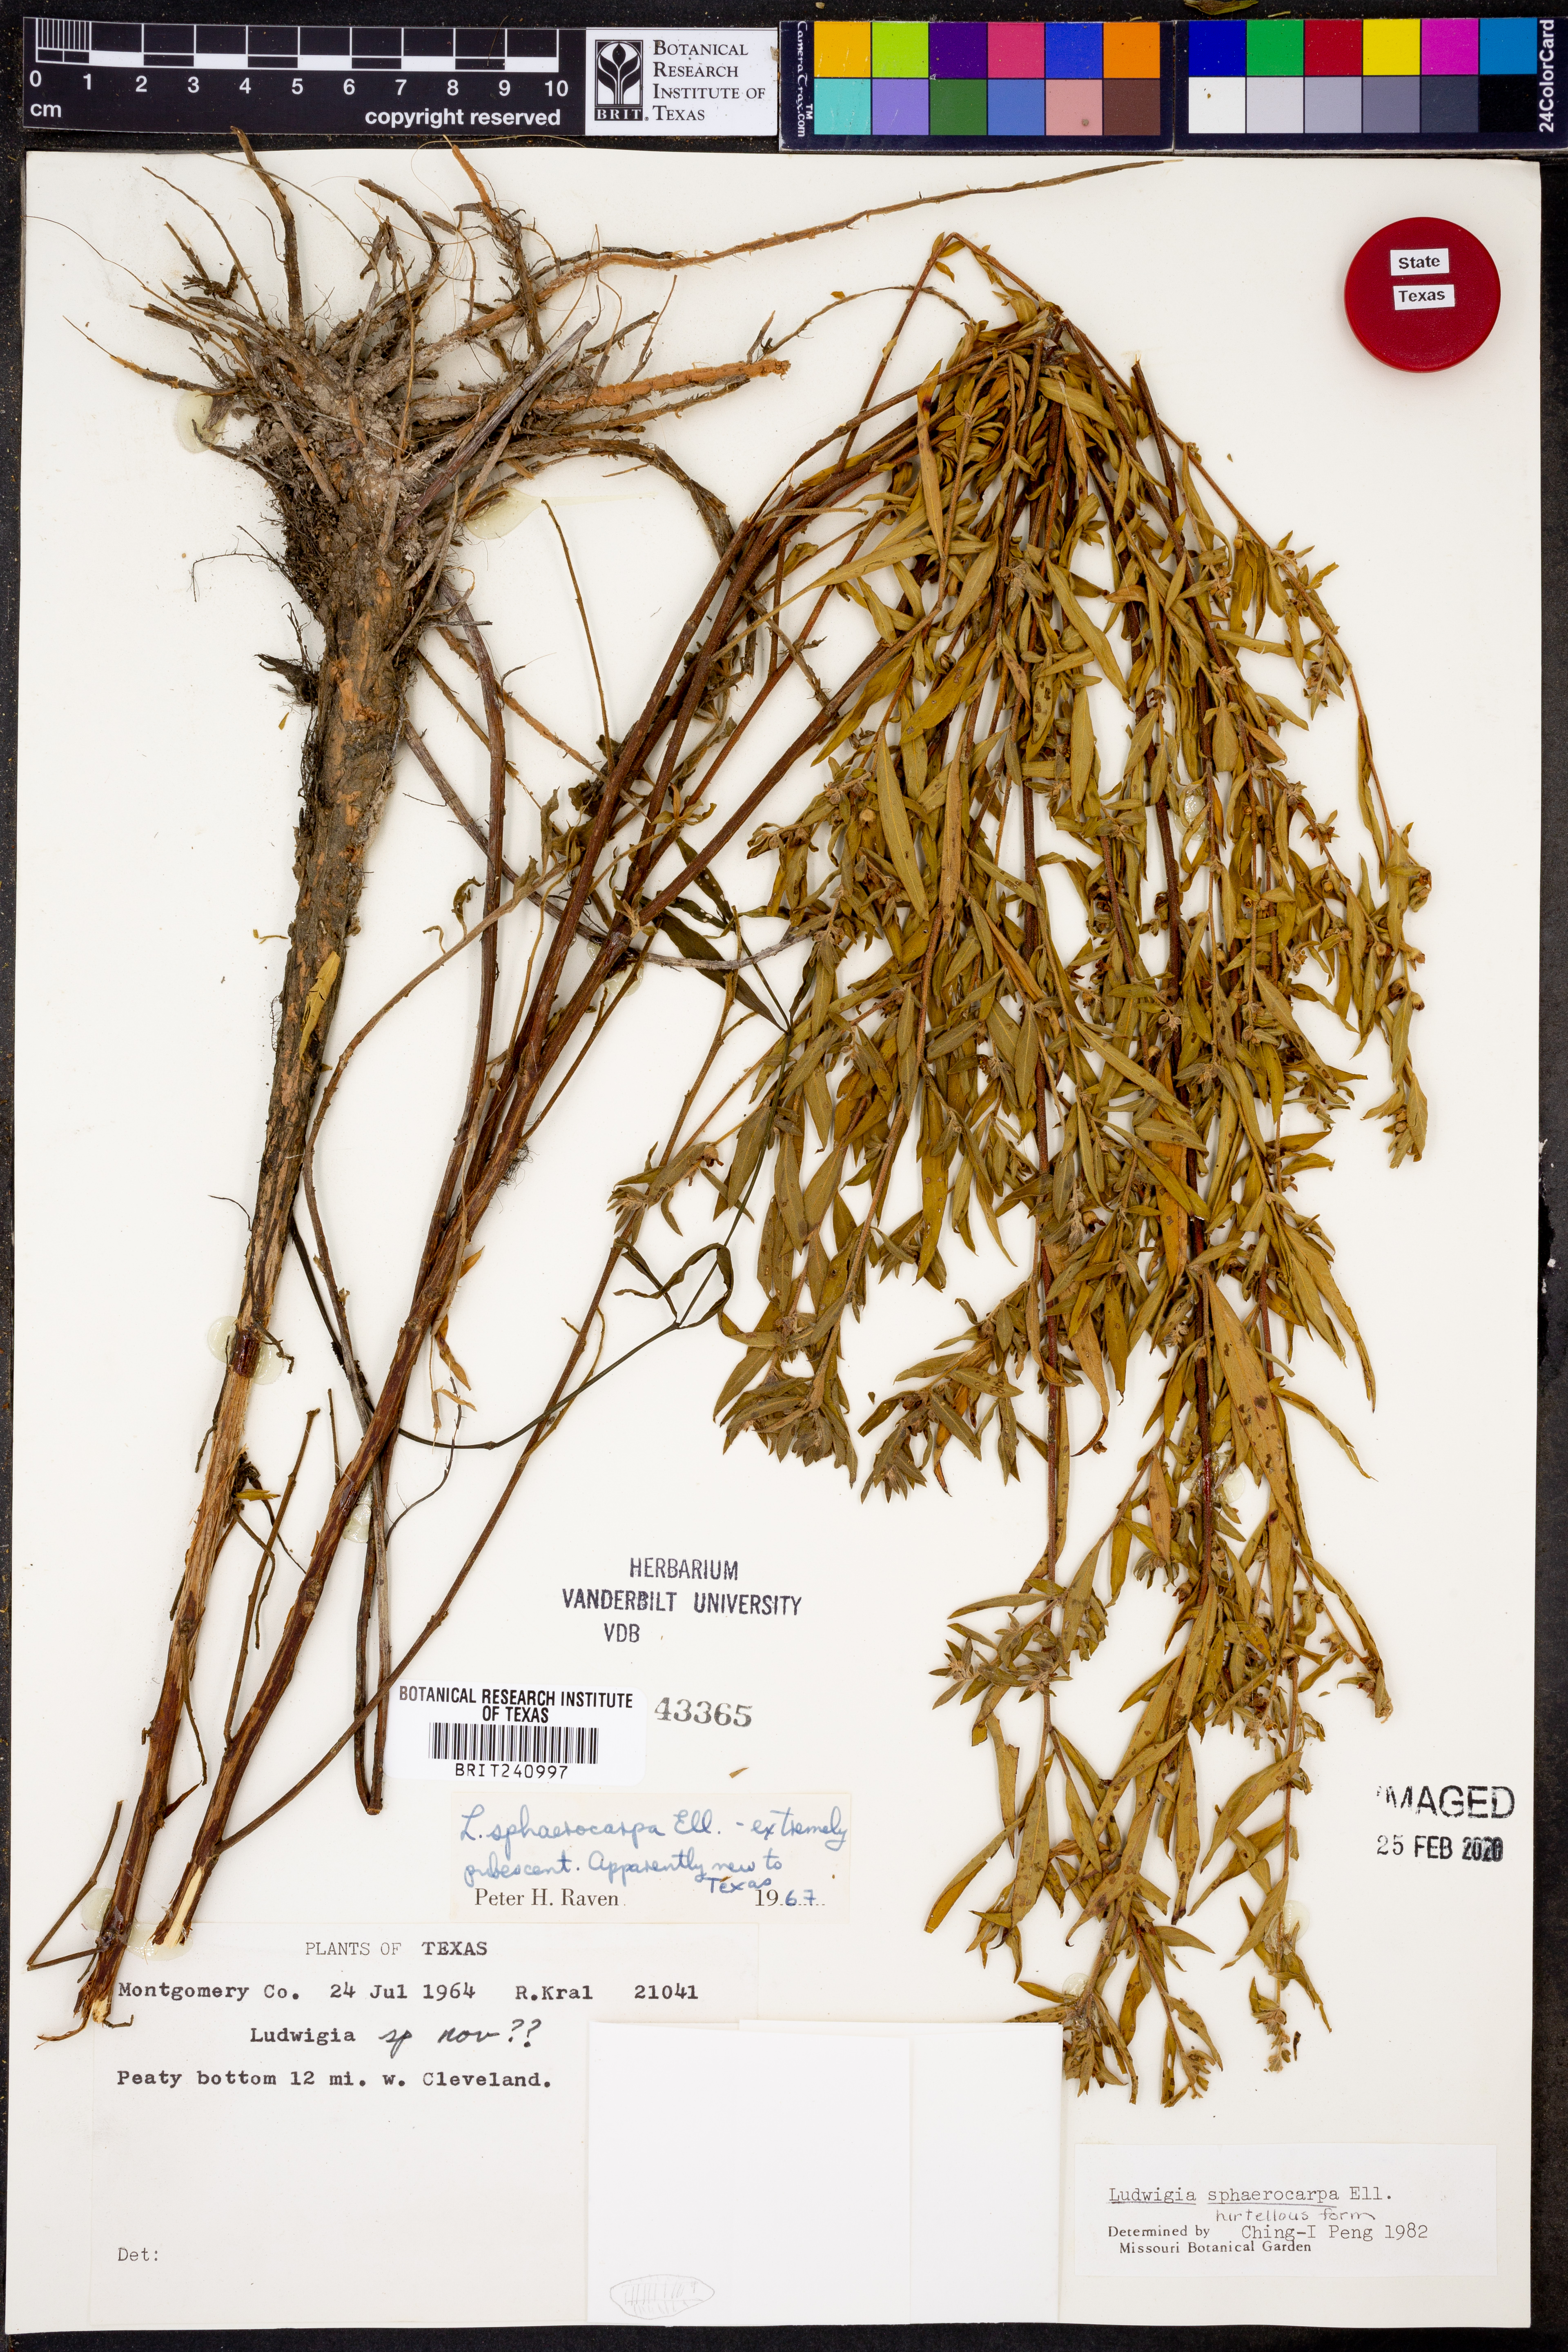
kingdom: Plantae
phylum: Tracheophyta
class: Magnoliopsida
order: Myrtales
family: Onagraceae
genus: Ludwigia
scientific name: Ludwigia sphaerocarpa
